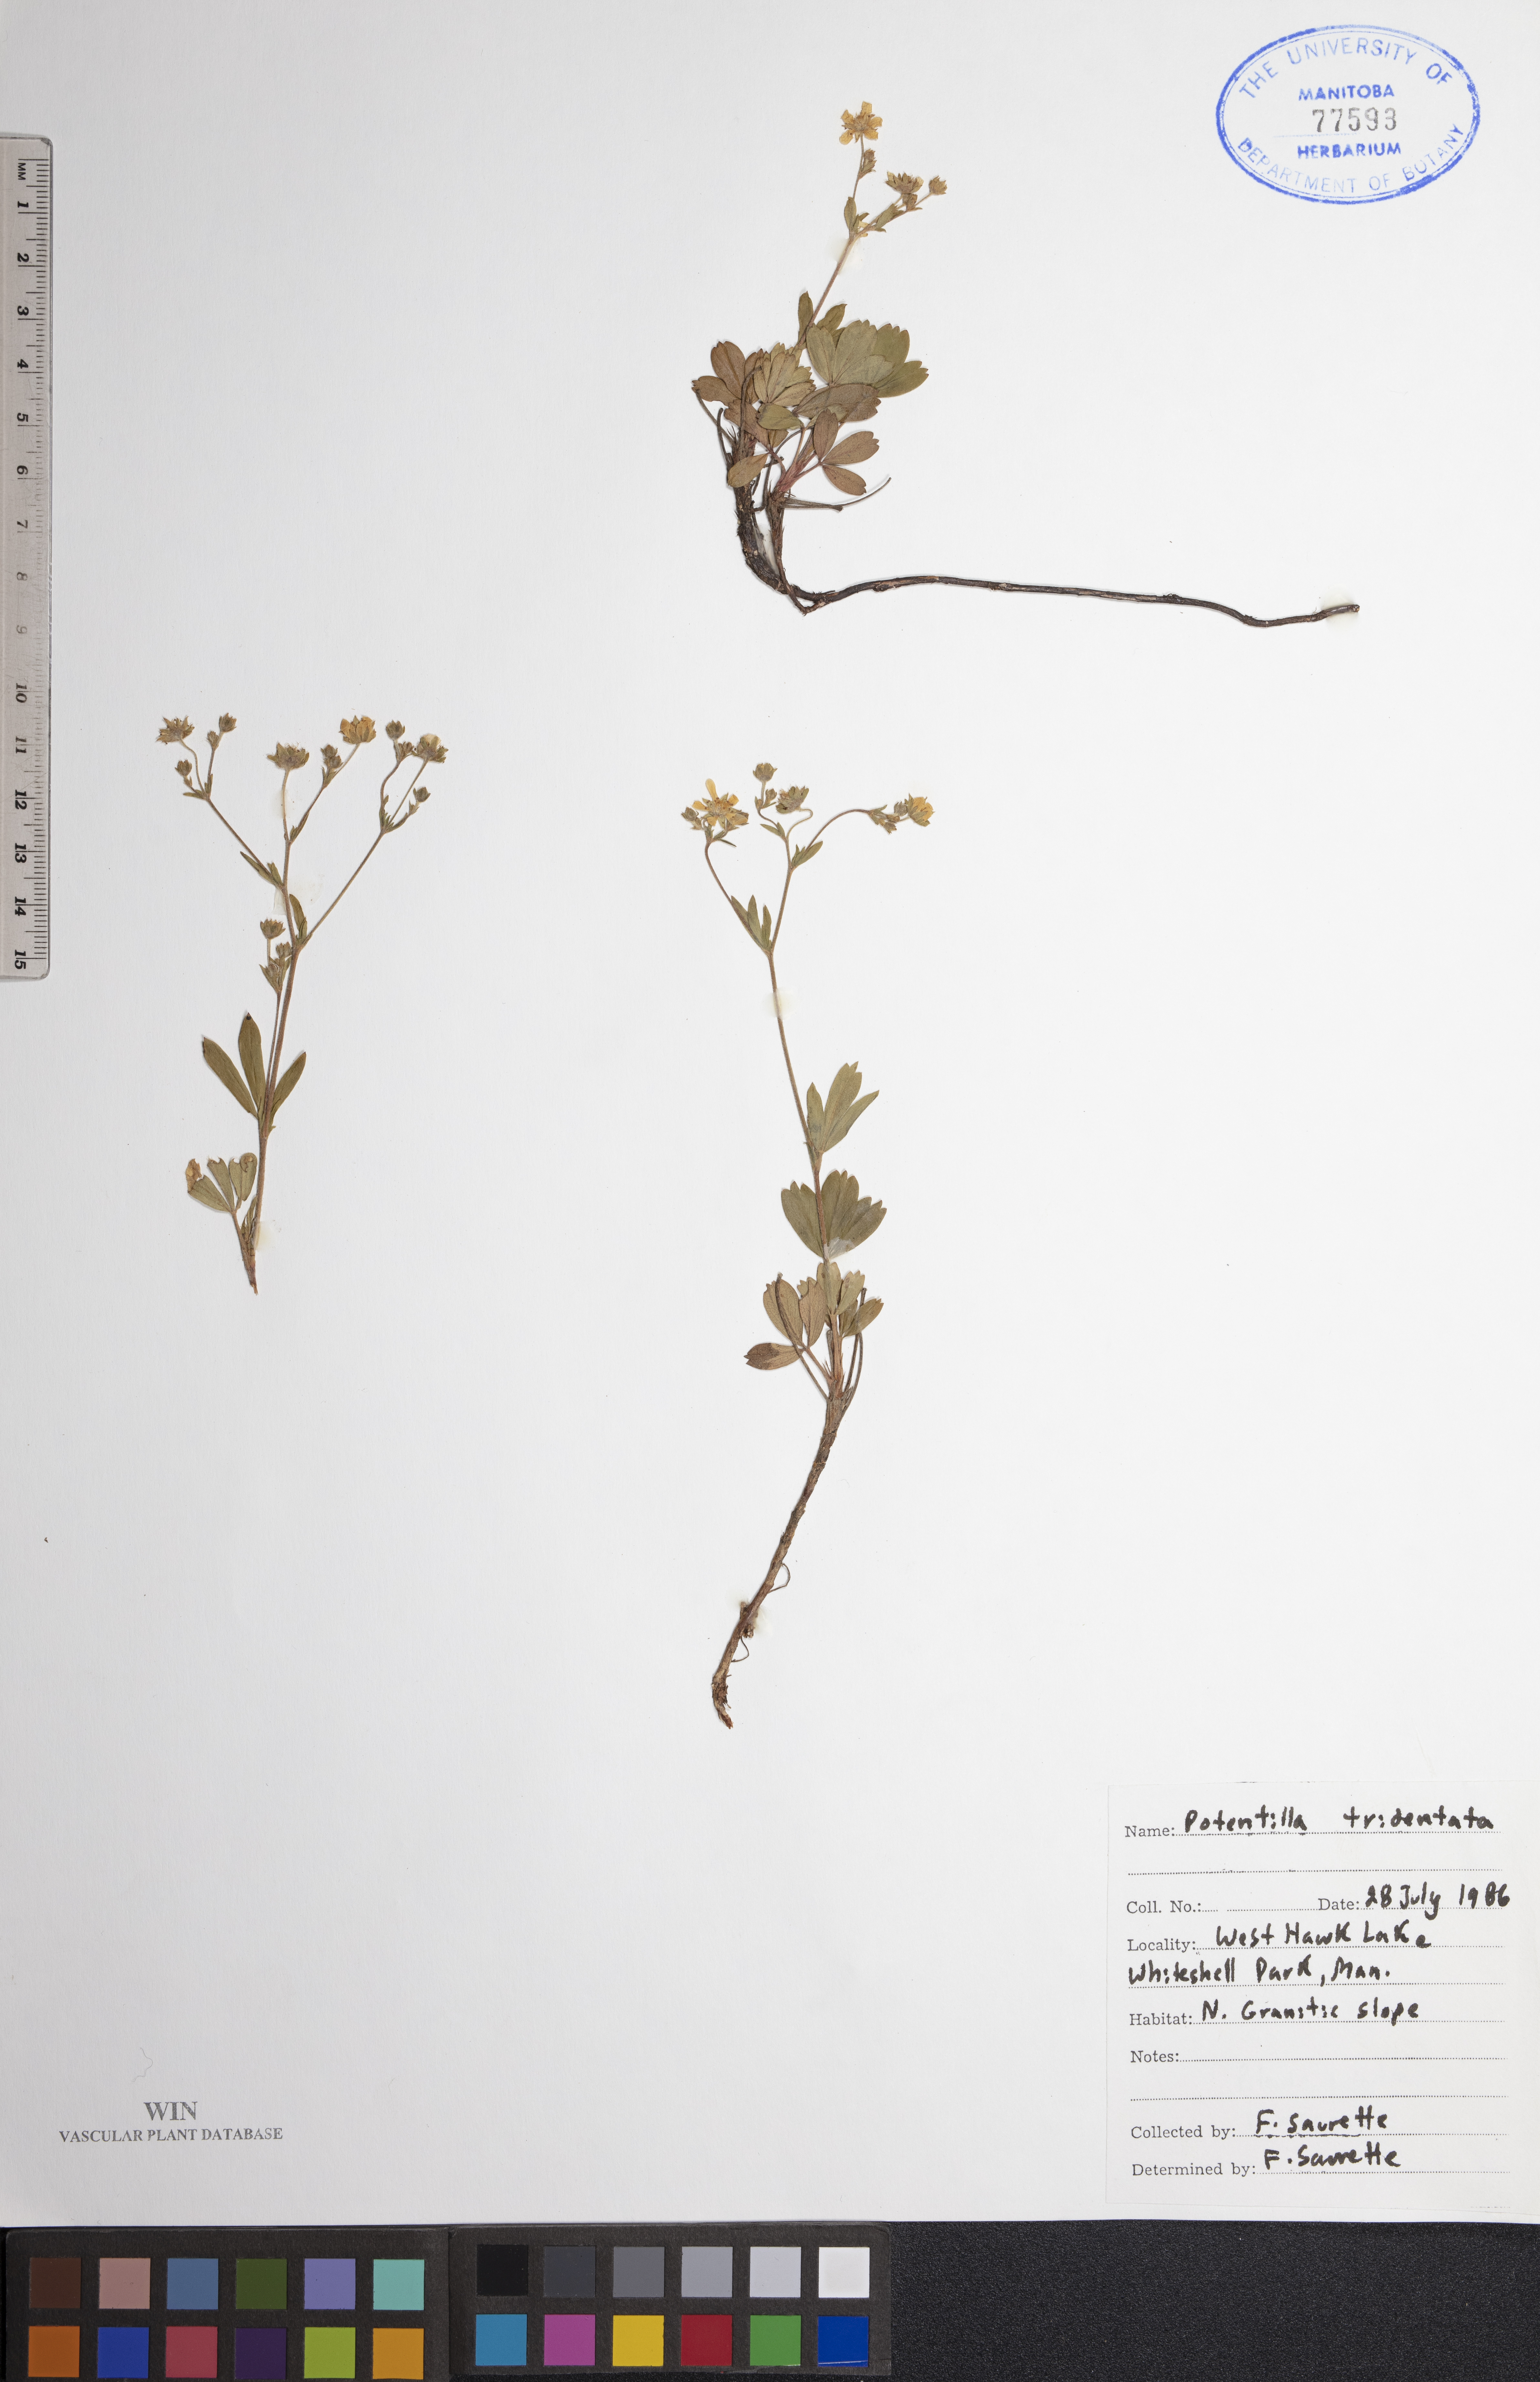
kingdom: Plantae
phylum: Tracheophyta
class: Magnoliopsida
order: Rosales
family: Rosaceae
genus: Sibbaldia
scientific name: Sibbaldia tridentata
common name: Three-toothed cinquefoil
